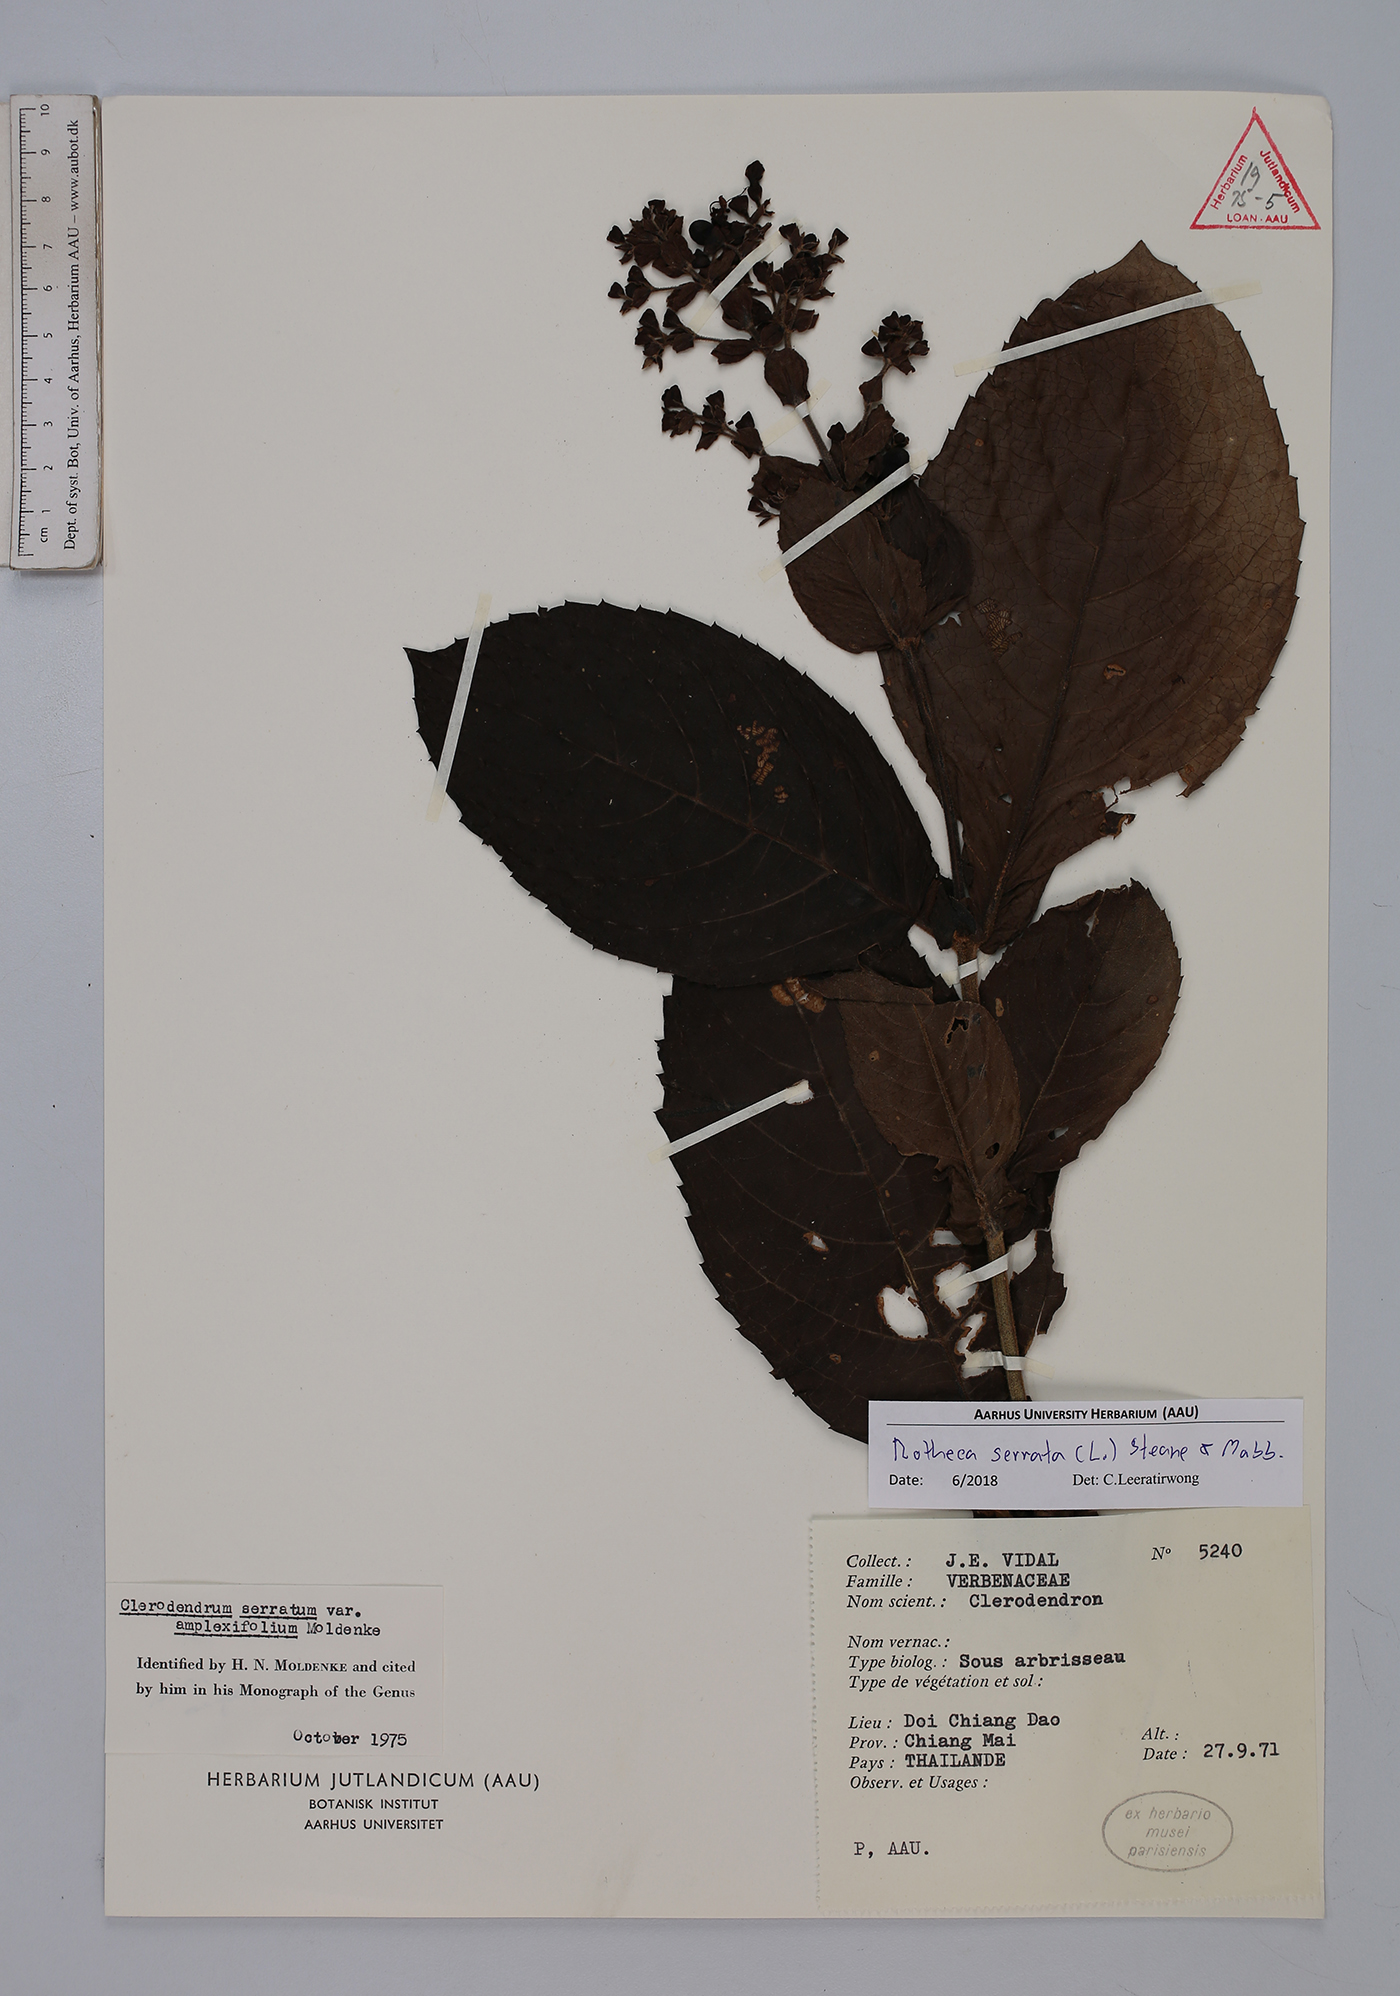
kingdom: Plantae
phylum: Tracheophyta
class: Magnoliopsida
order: Lamiales
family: Lamiaceae
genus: Rotheca
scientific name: Rotheca serrata
